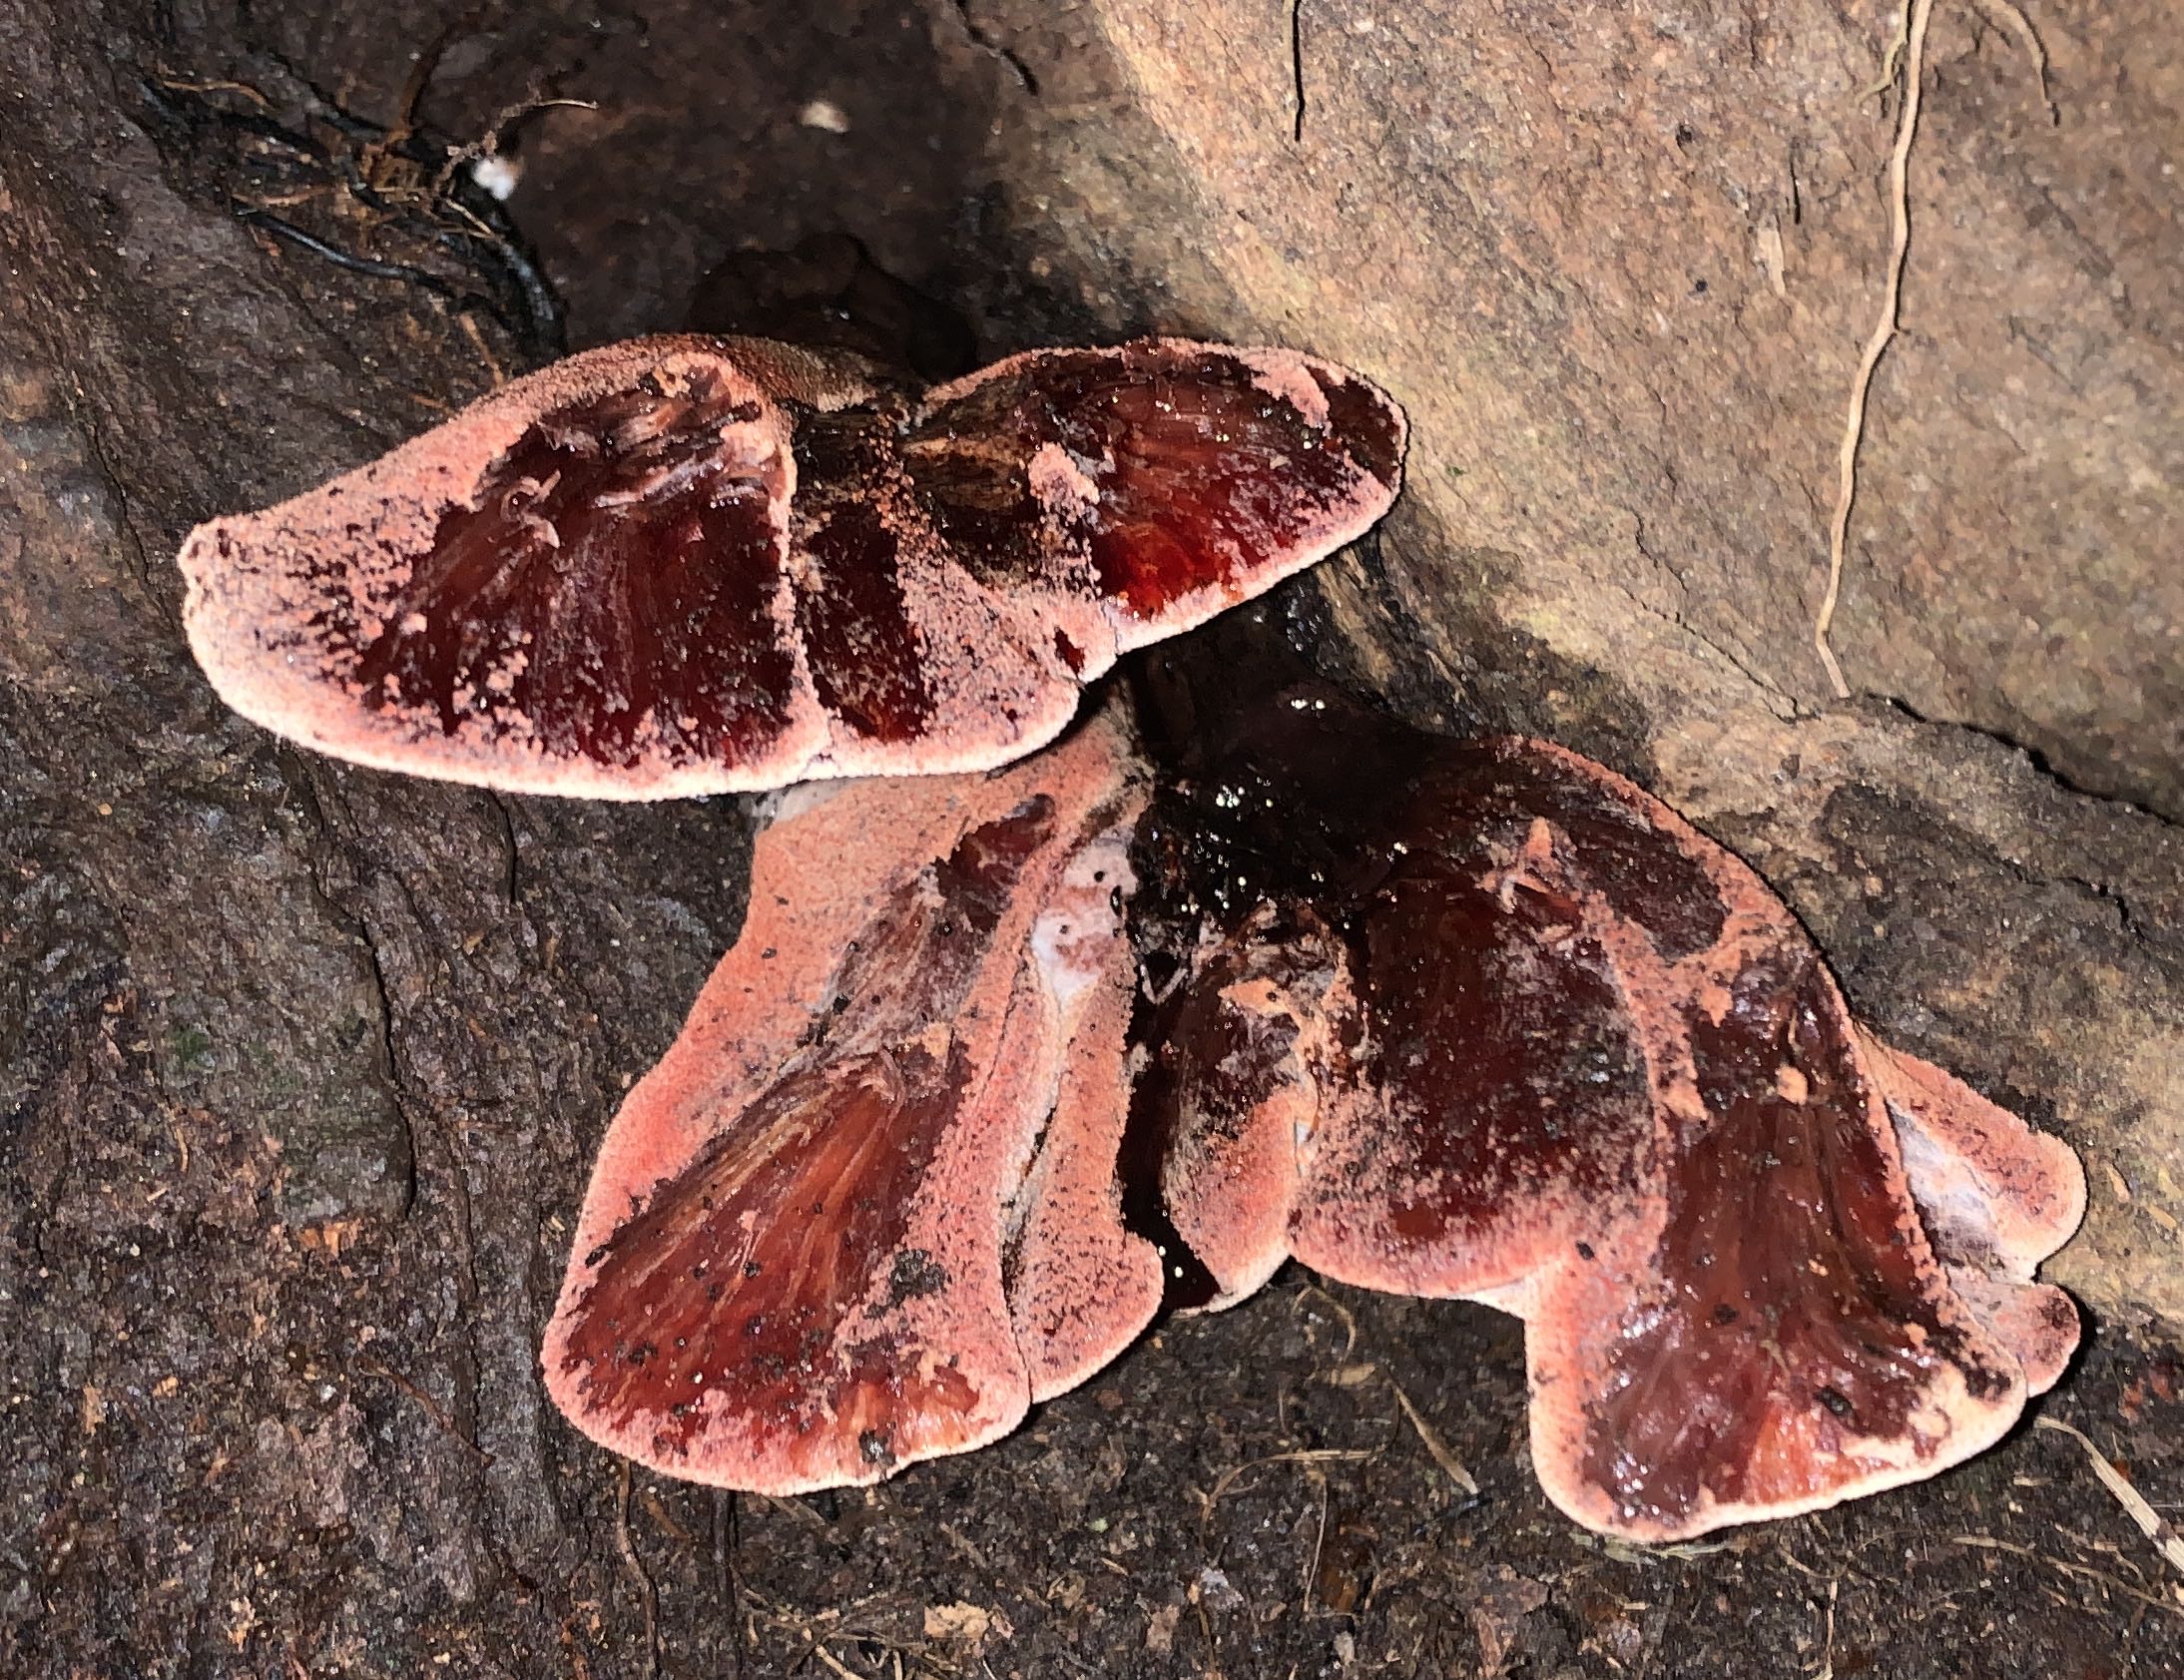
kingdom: Fungi
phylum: Basidiomycota
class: Agaricomycetes
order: Agaricales
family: Fistulinaceae
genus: Fistulina
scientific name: Fistulina hepatica
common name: oksetunge
